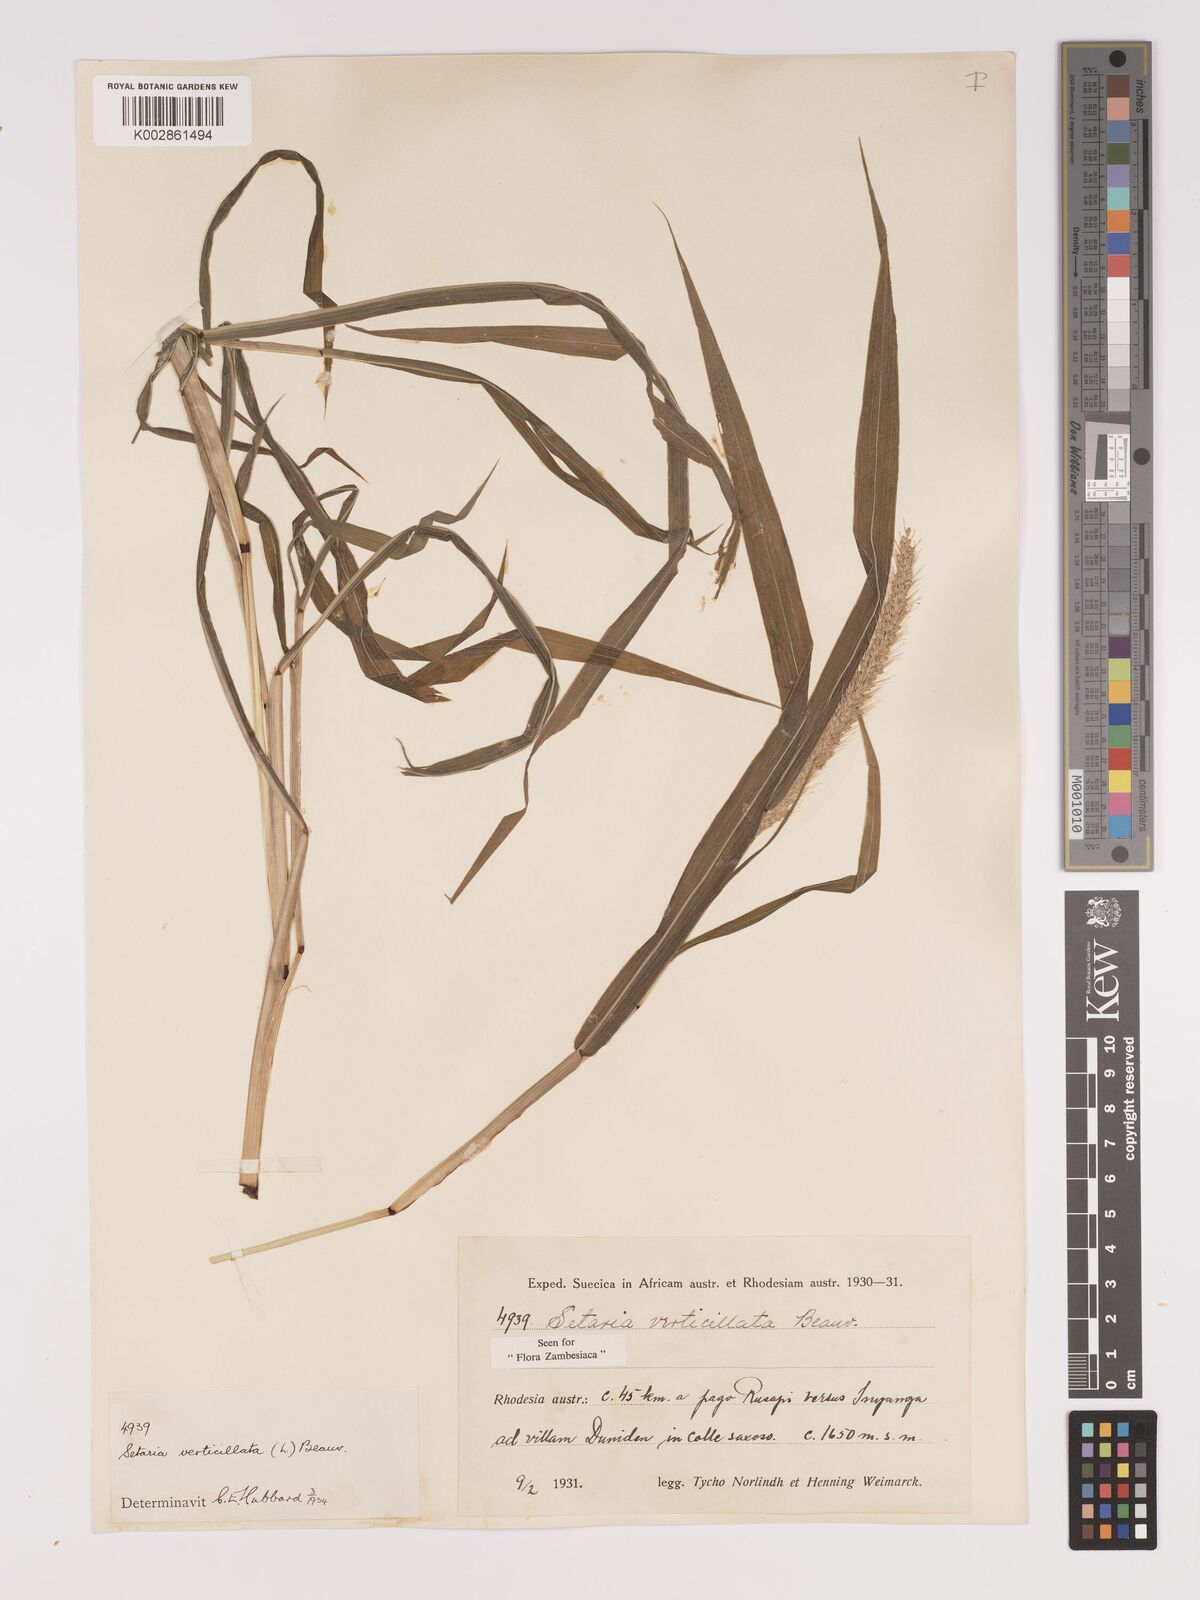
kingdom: Plantae
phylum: Tracheophyta
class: Liliopsida
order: Poales
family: Poaceae
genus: Setaria
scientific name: Setaria verticillata
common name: Hooked bristlegrass
